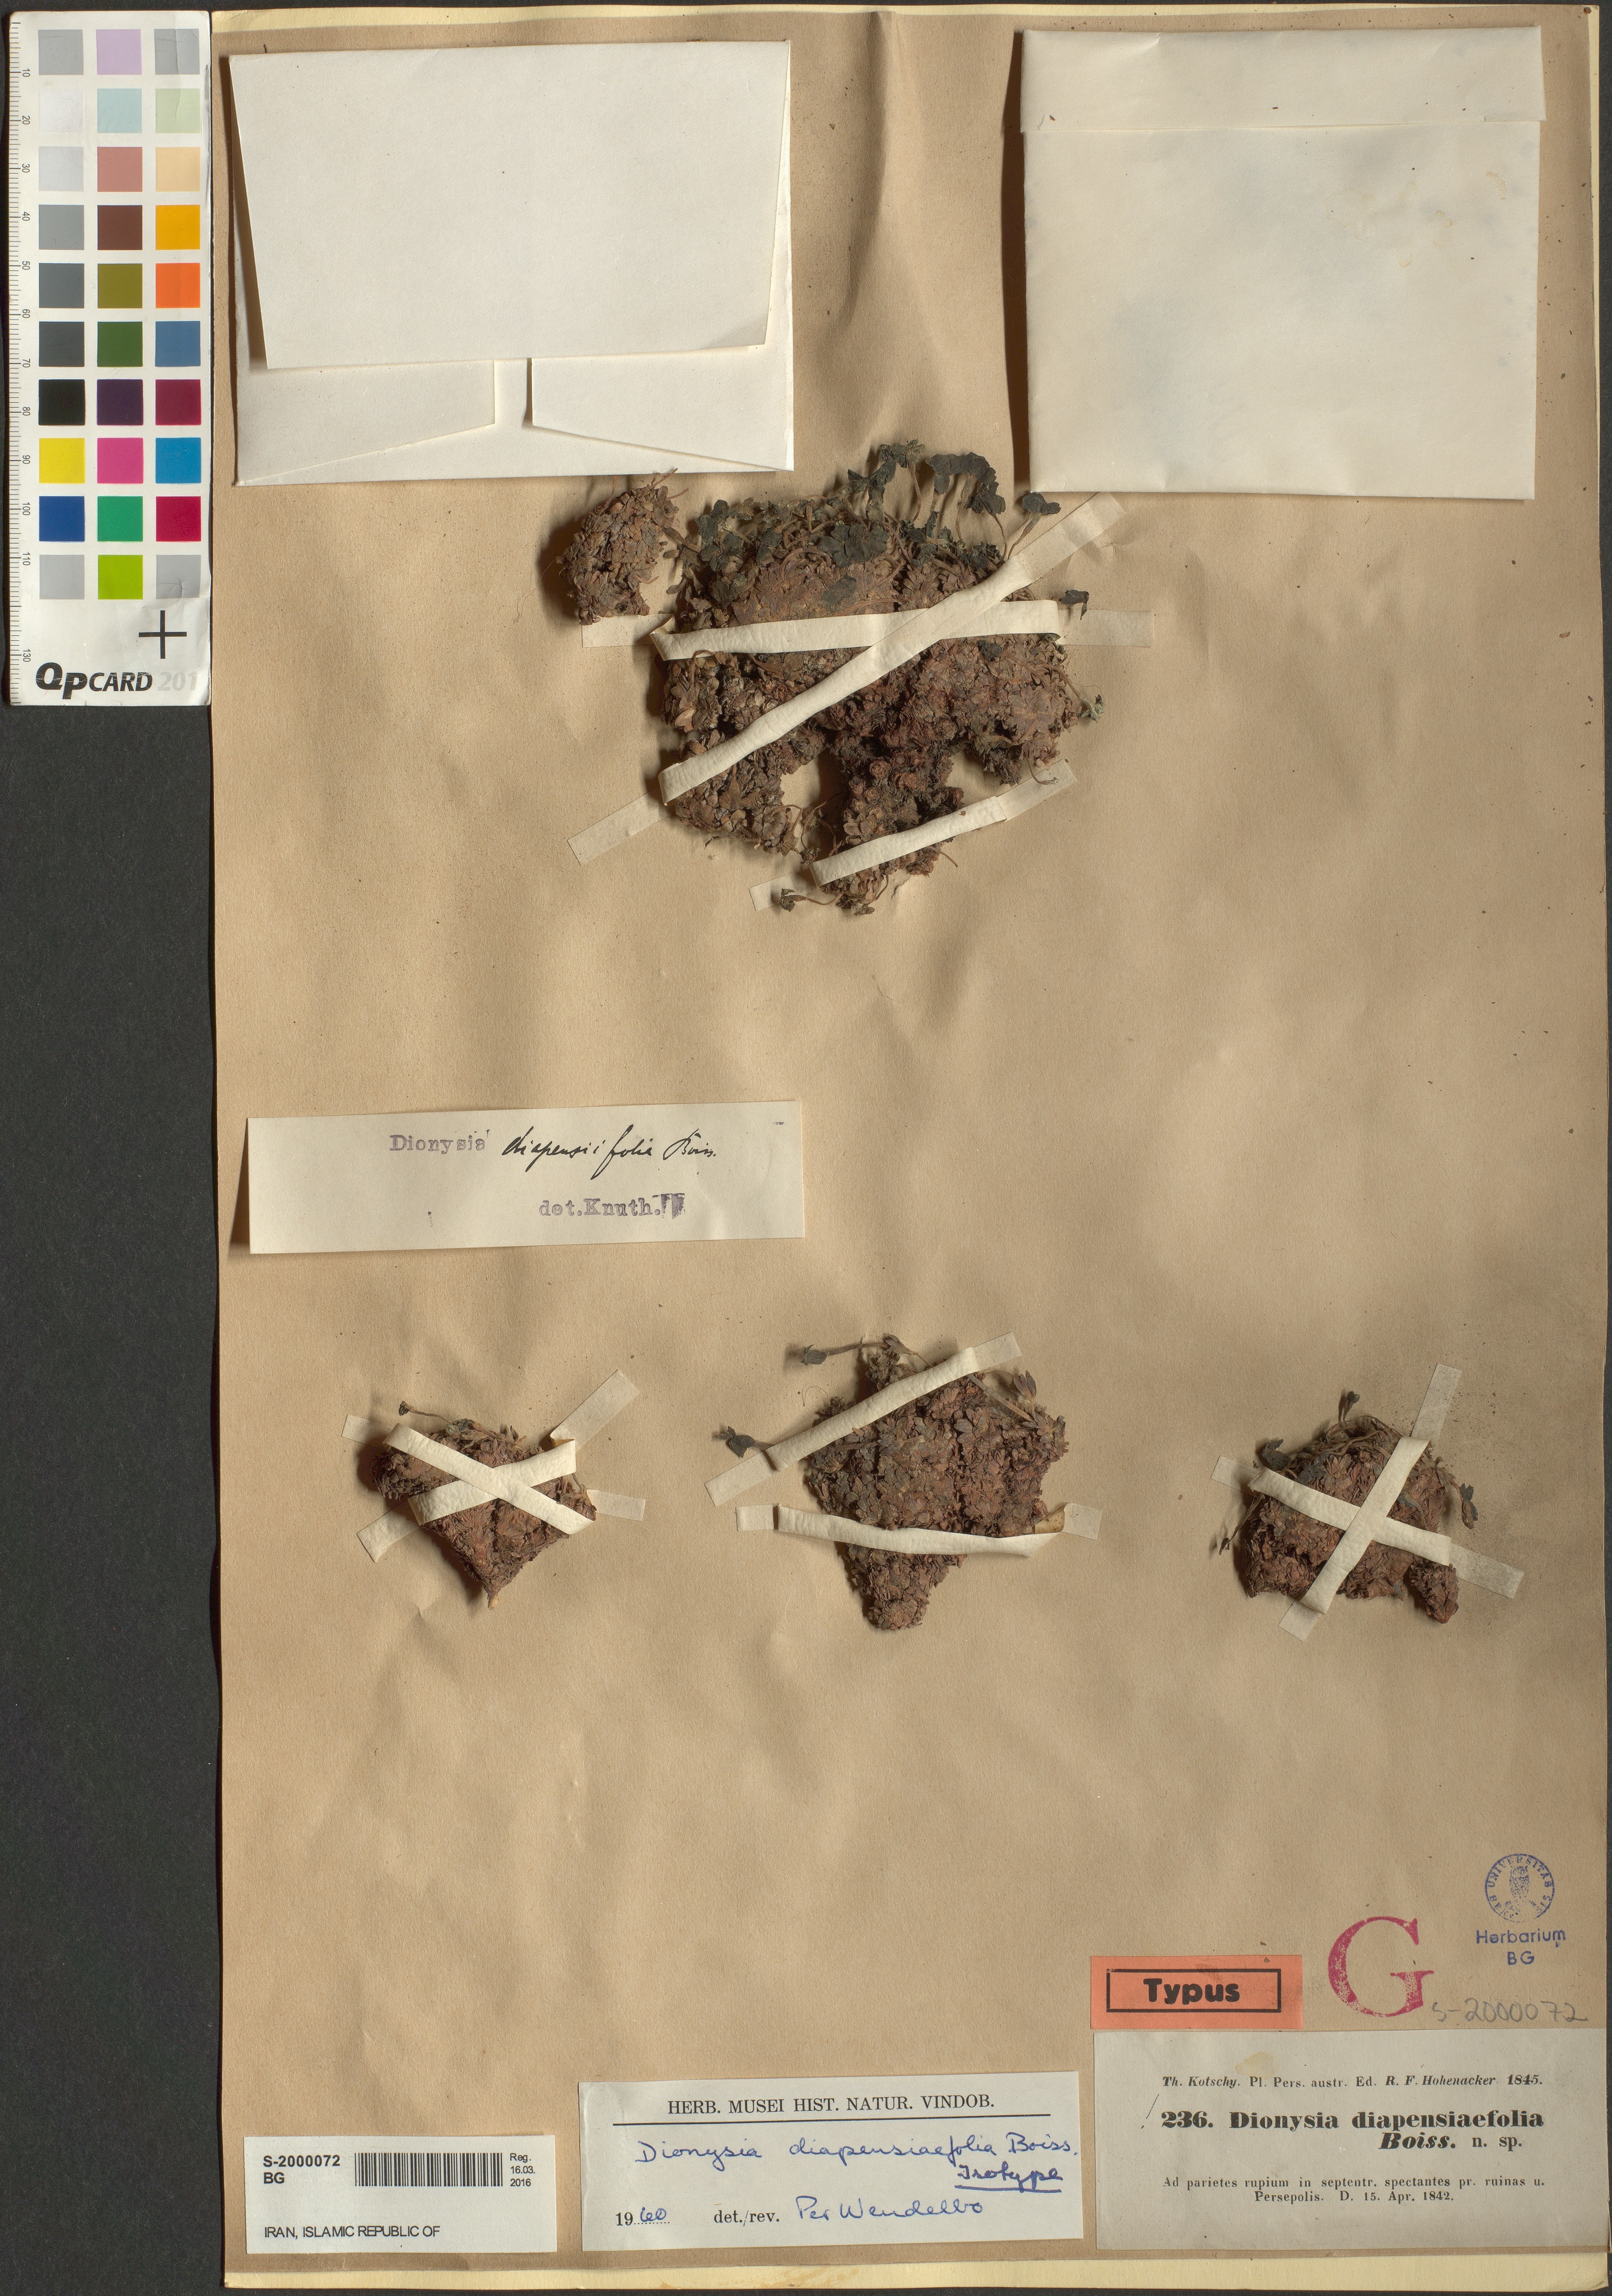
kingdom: Plantae
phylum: Tracheophyta
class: Magnoliopsida
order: Ericales
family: Primulaceae
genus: Dionysia
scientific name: Dionysia diapensiifolia
